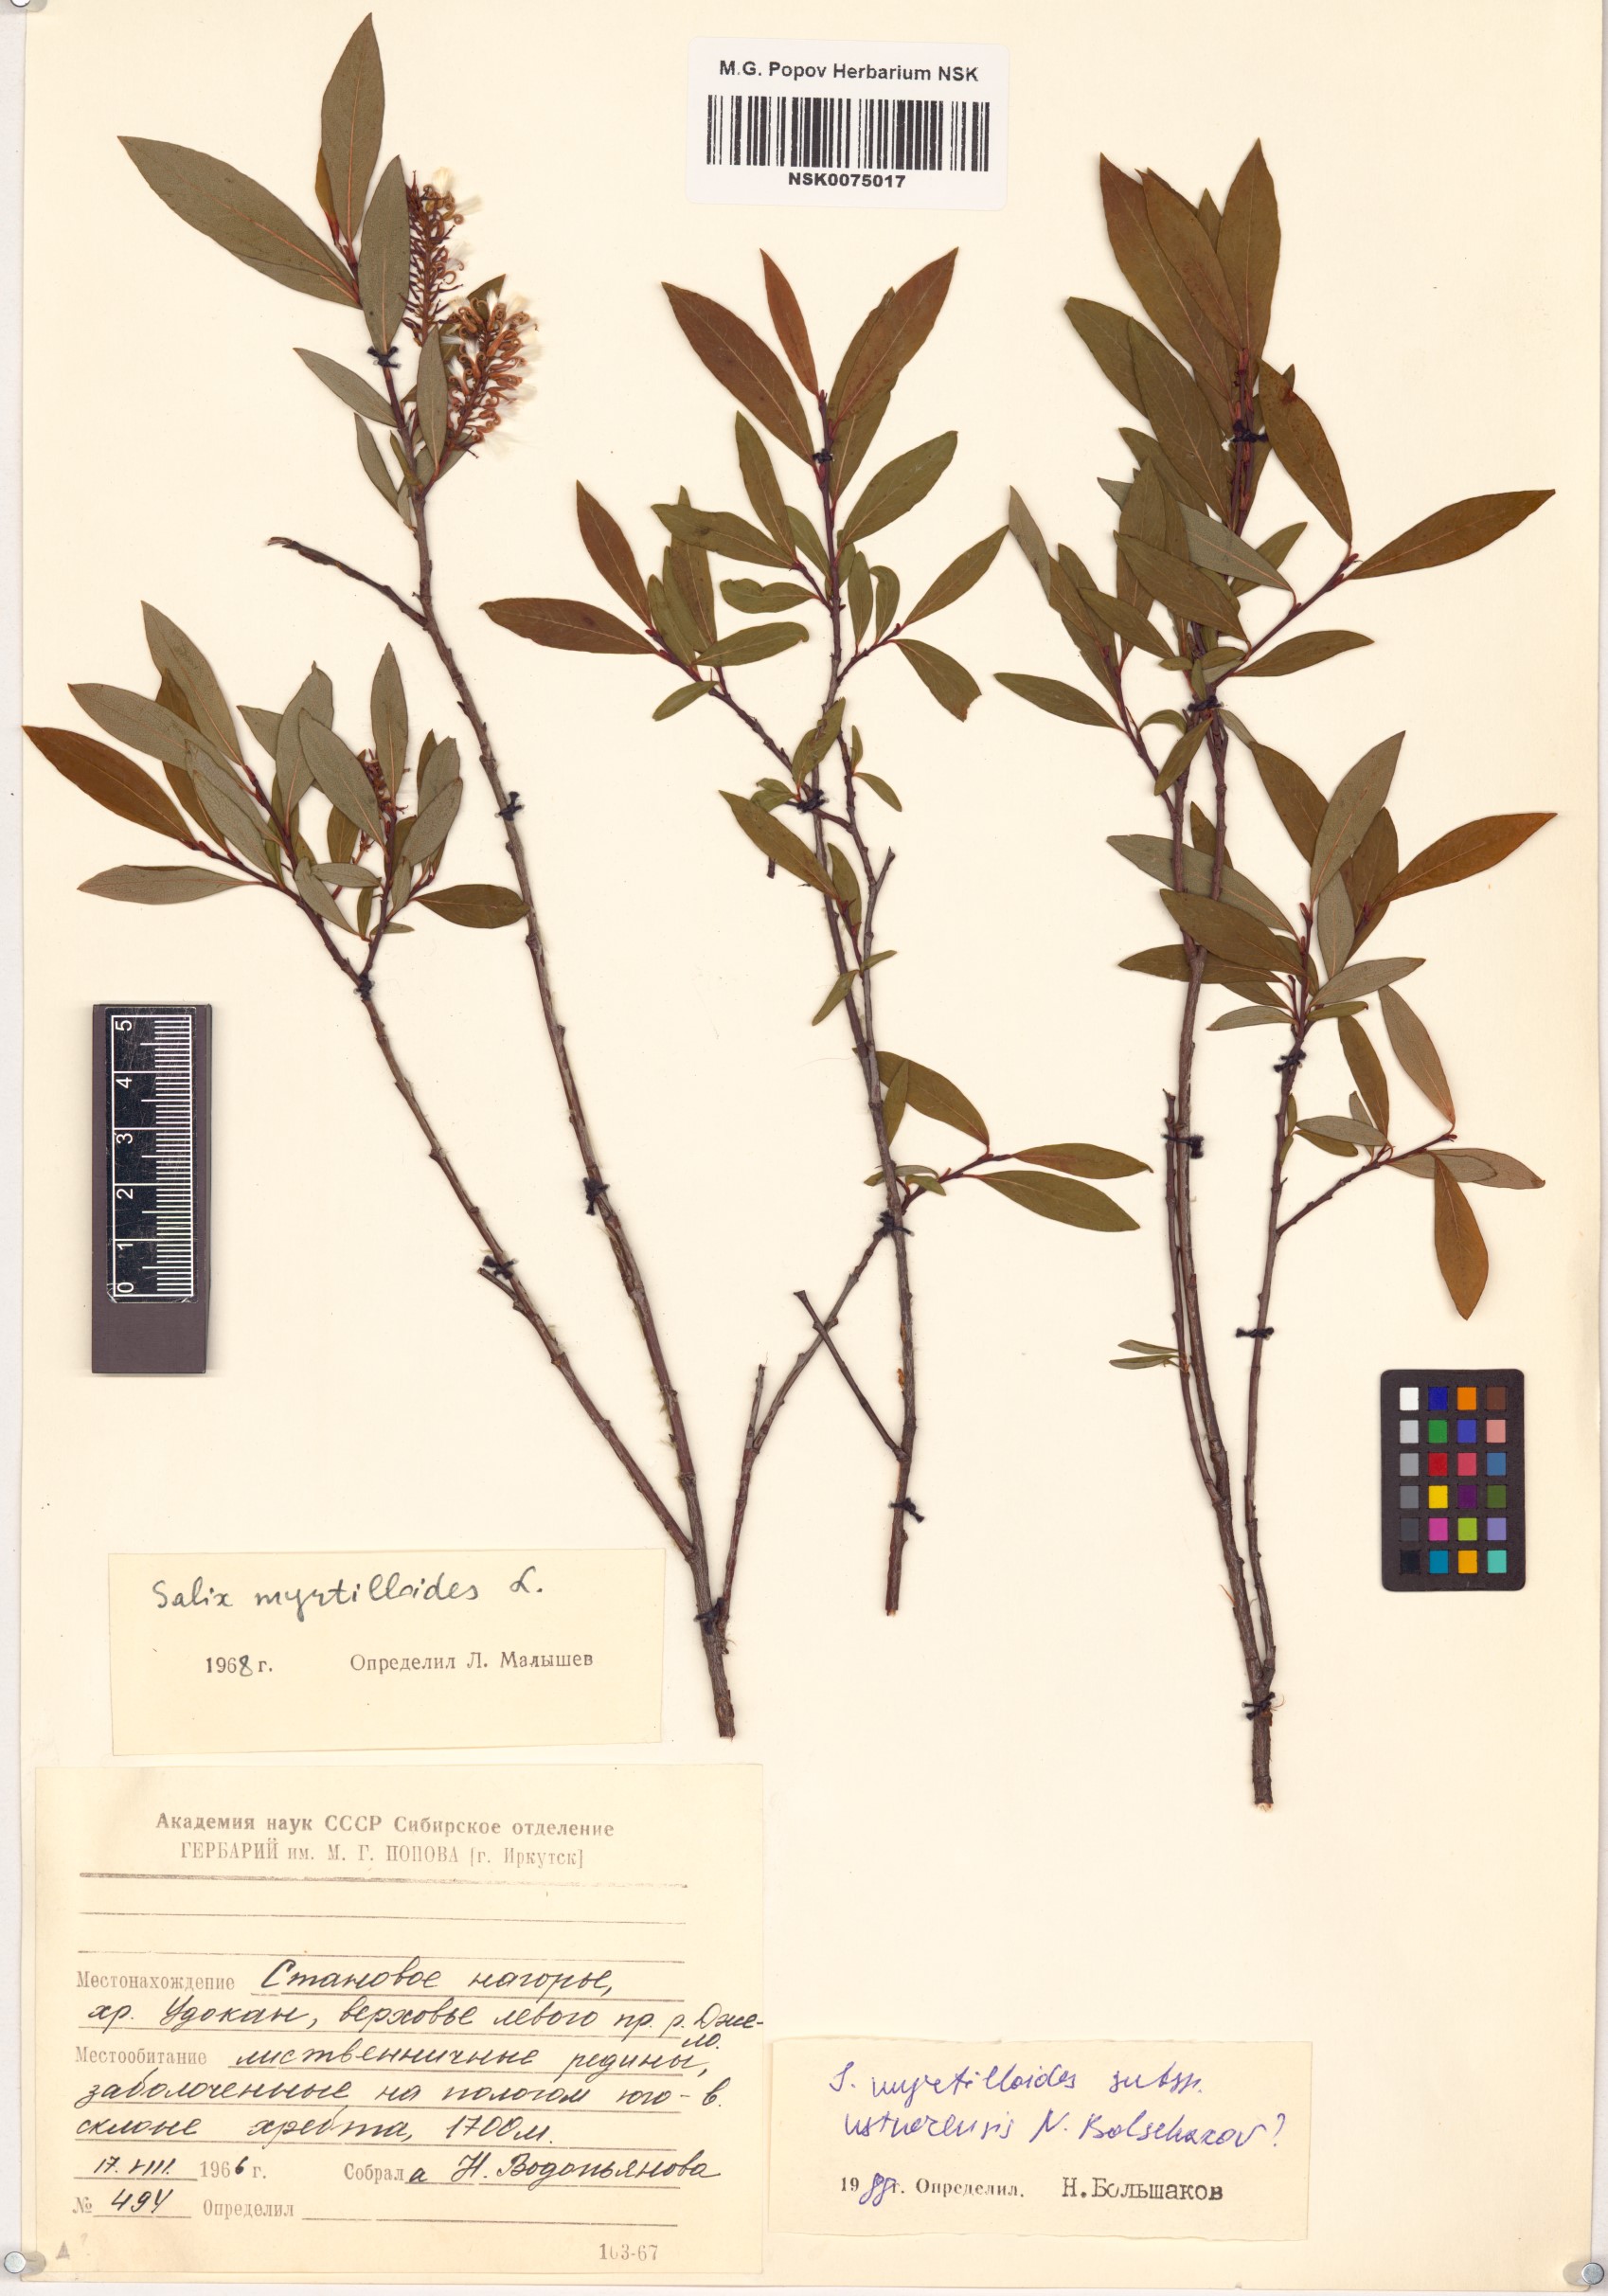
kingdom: Plantae
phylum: Tracheophyta
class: Magnoliopsida
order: Malpighiales
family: Salicaceae
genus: Salix
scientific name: Salix ustnerensis
